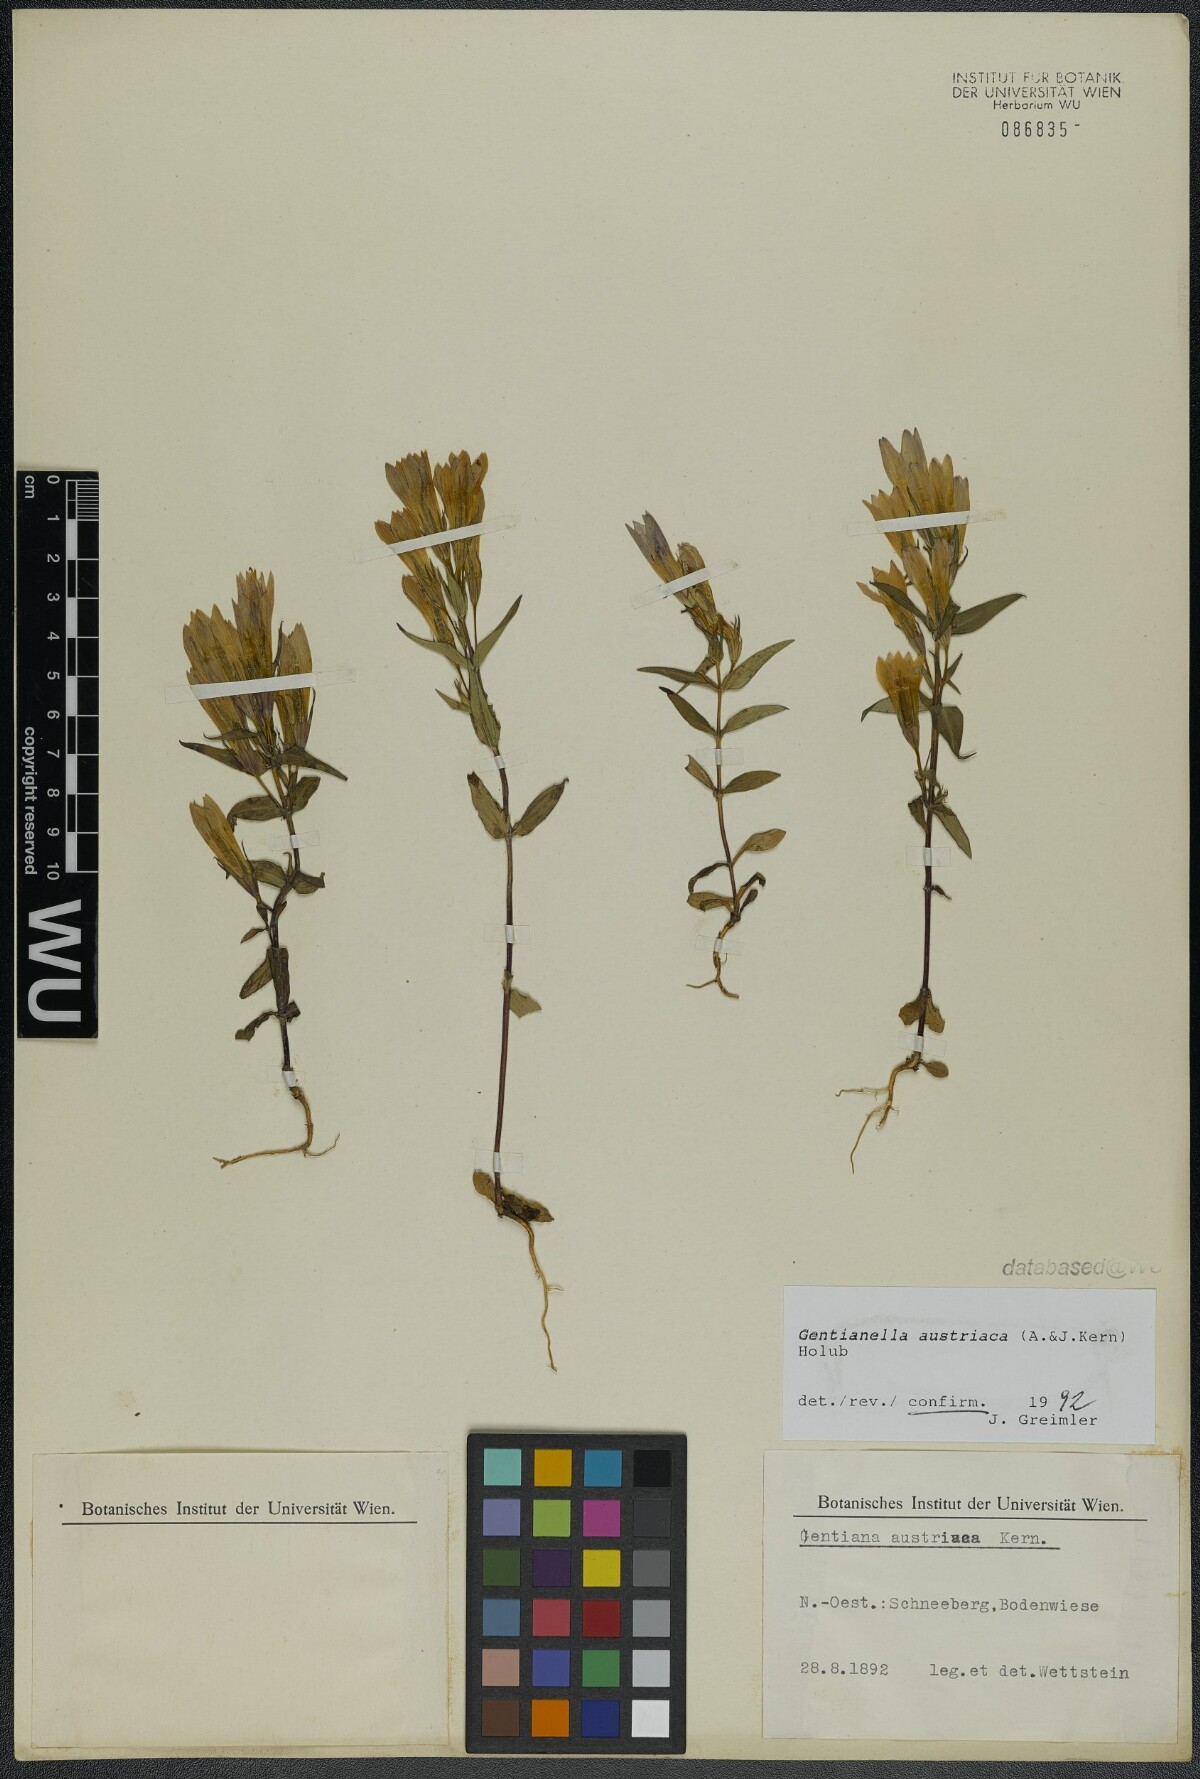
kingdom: Plantae
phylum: Tracheophyta
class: Magnoliopsida
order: Gentianales
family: Gentianaceae
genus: Gentianella
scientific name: Gentianella austriaca
